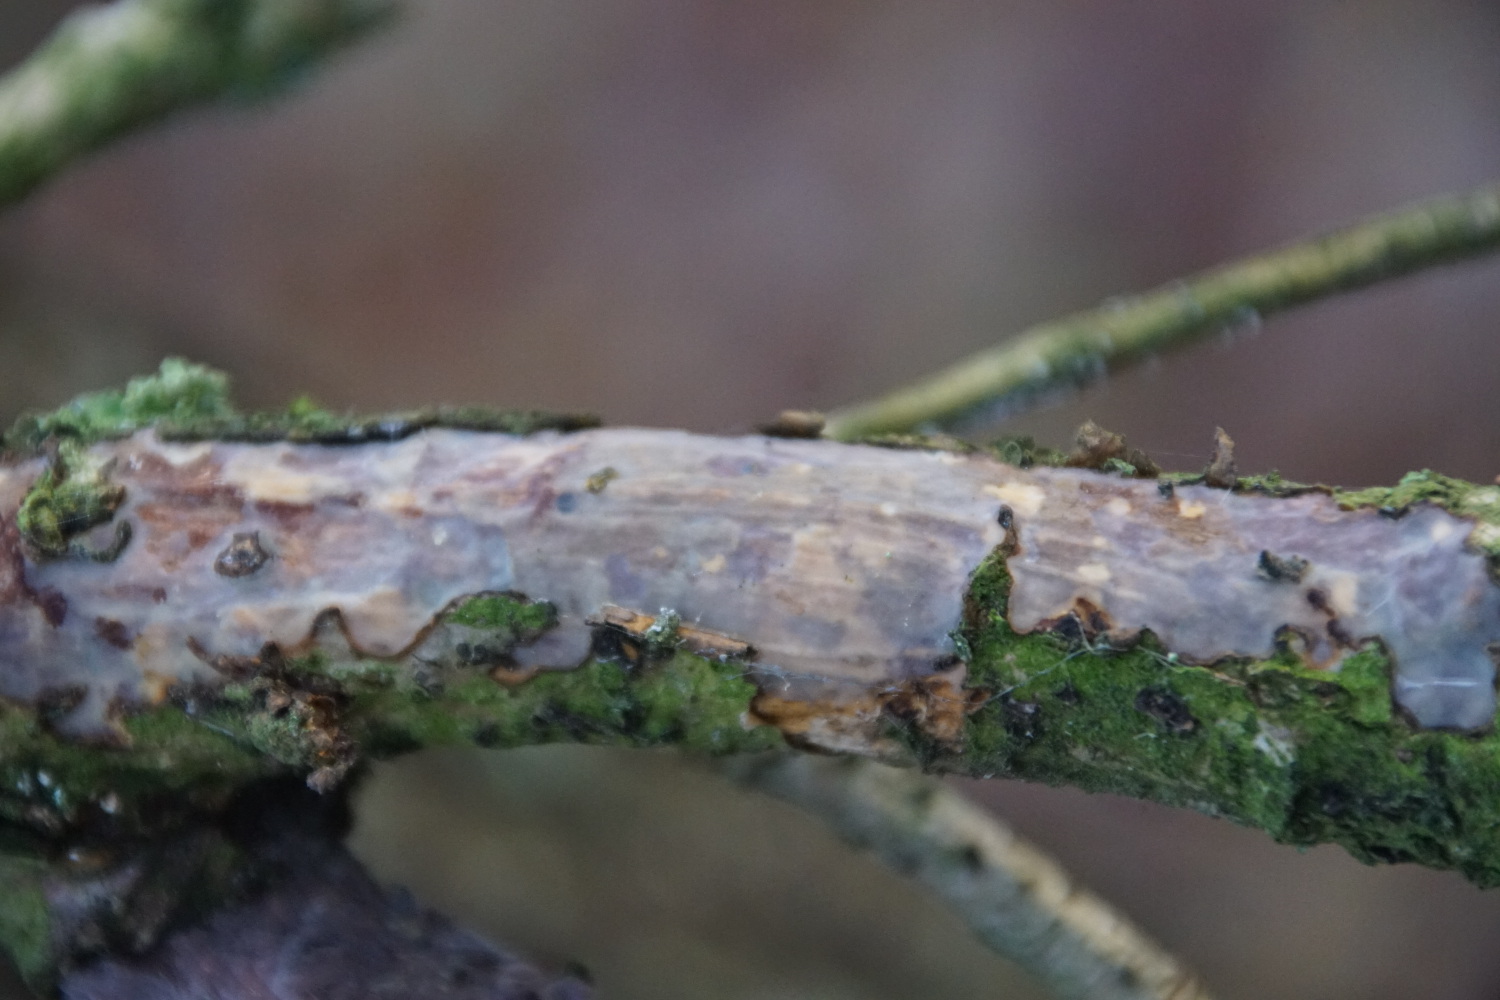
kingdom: Fungi
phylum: Basidiomycota
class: Agaricomycetes
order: Corticiales
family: Vuilleminiaceae
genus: Vuilleminia
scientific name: Vuilleminia comedens
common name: almindelig barksprænger
